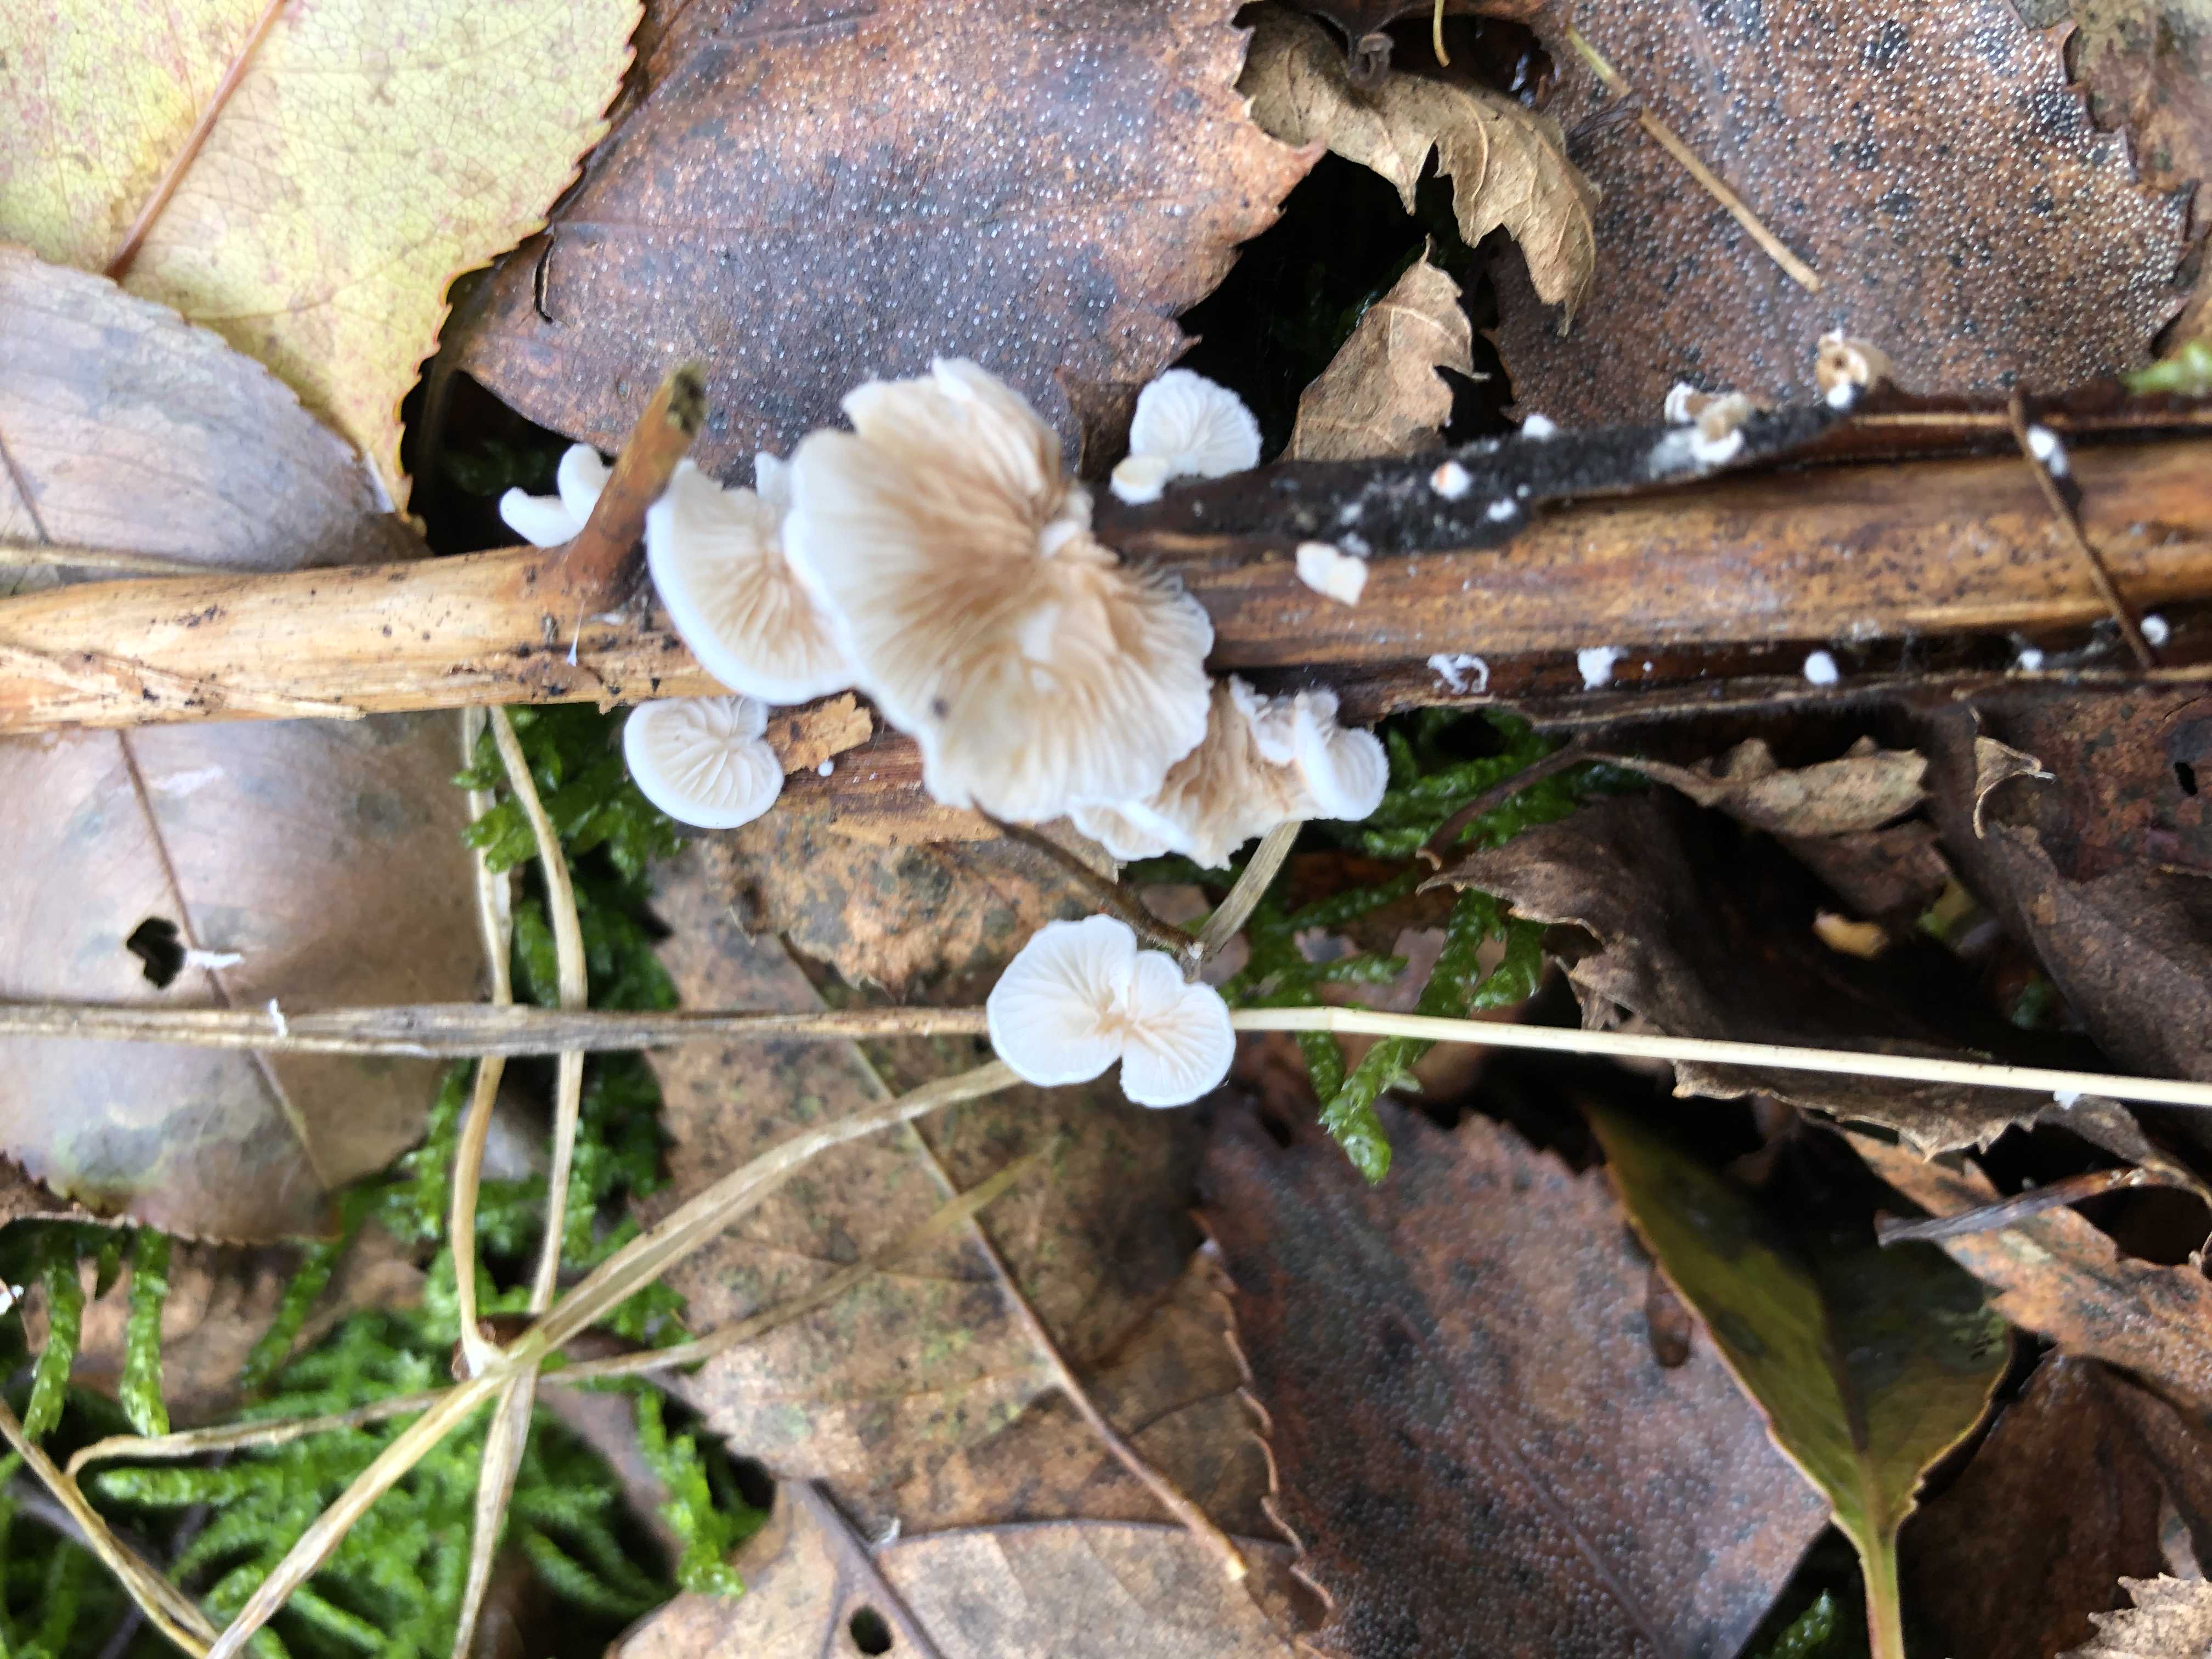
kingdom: Fungi
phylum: Basidiomycota
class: Agaricomycetes
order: Agaricales
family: Crepidotaceae
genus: Crepidotus
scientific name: Crepidotus
